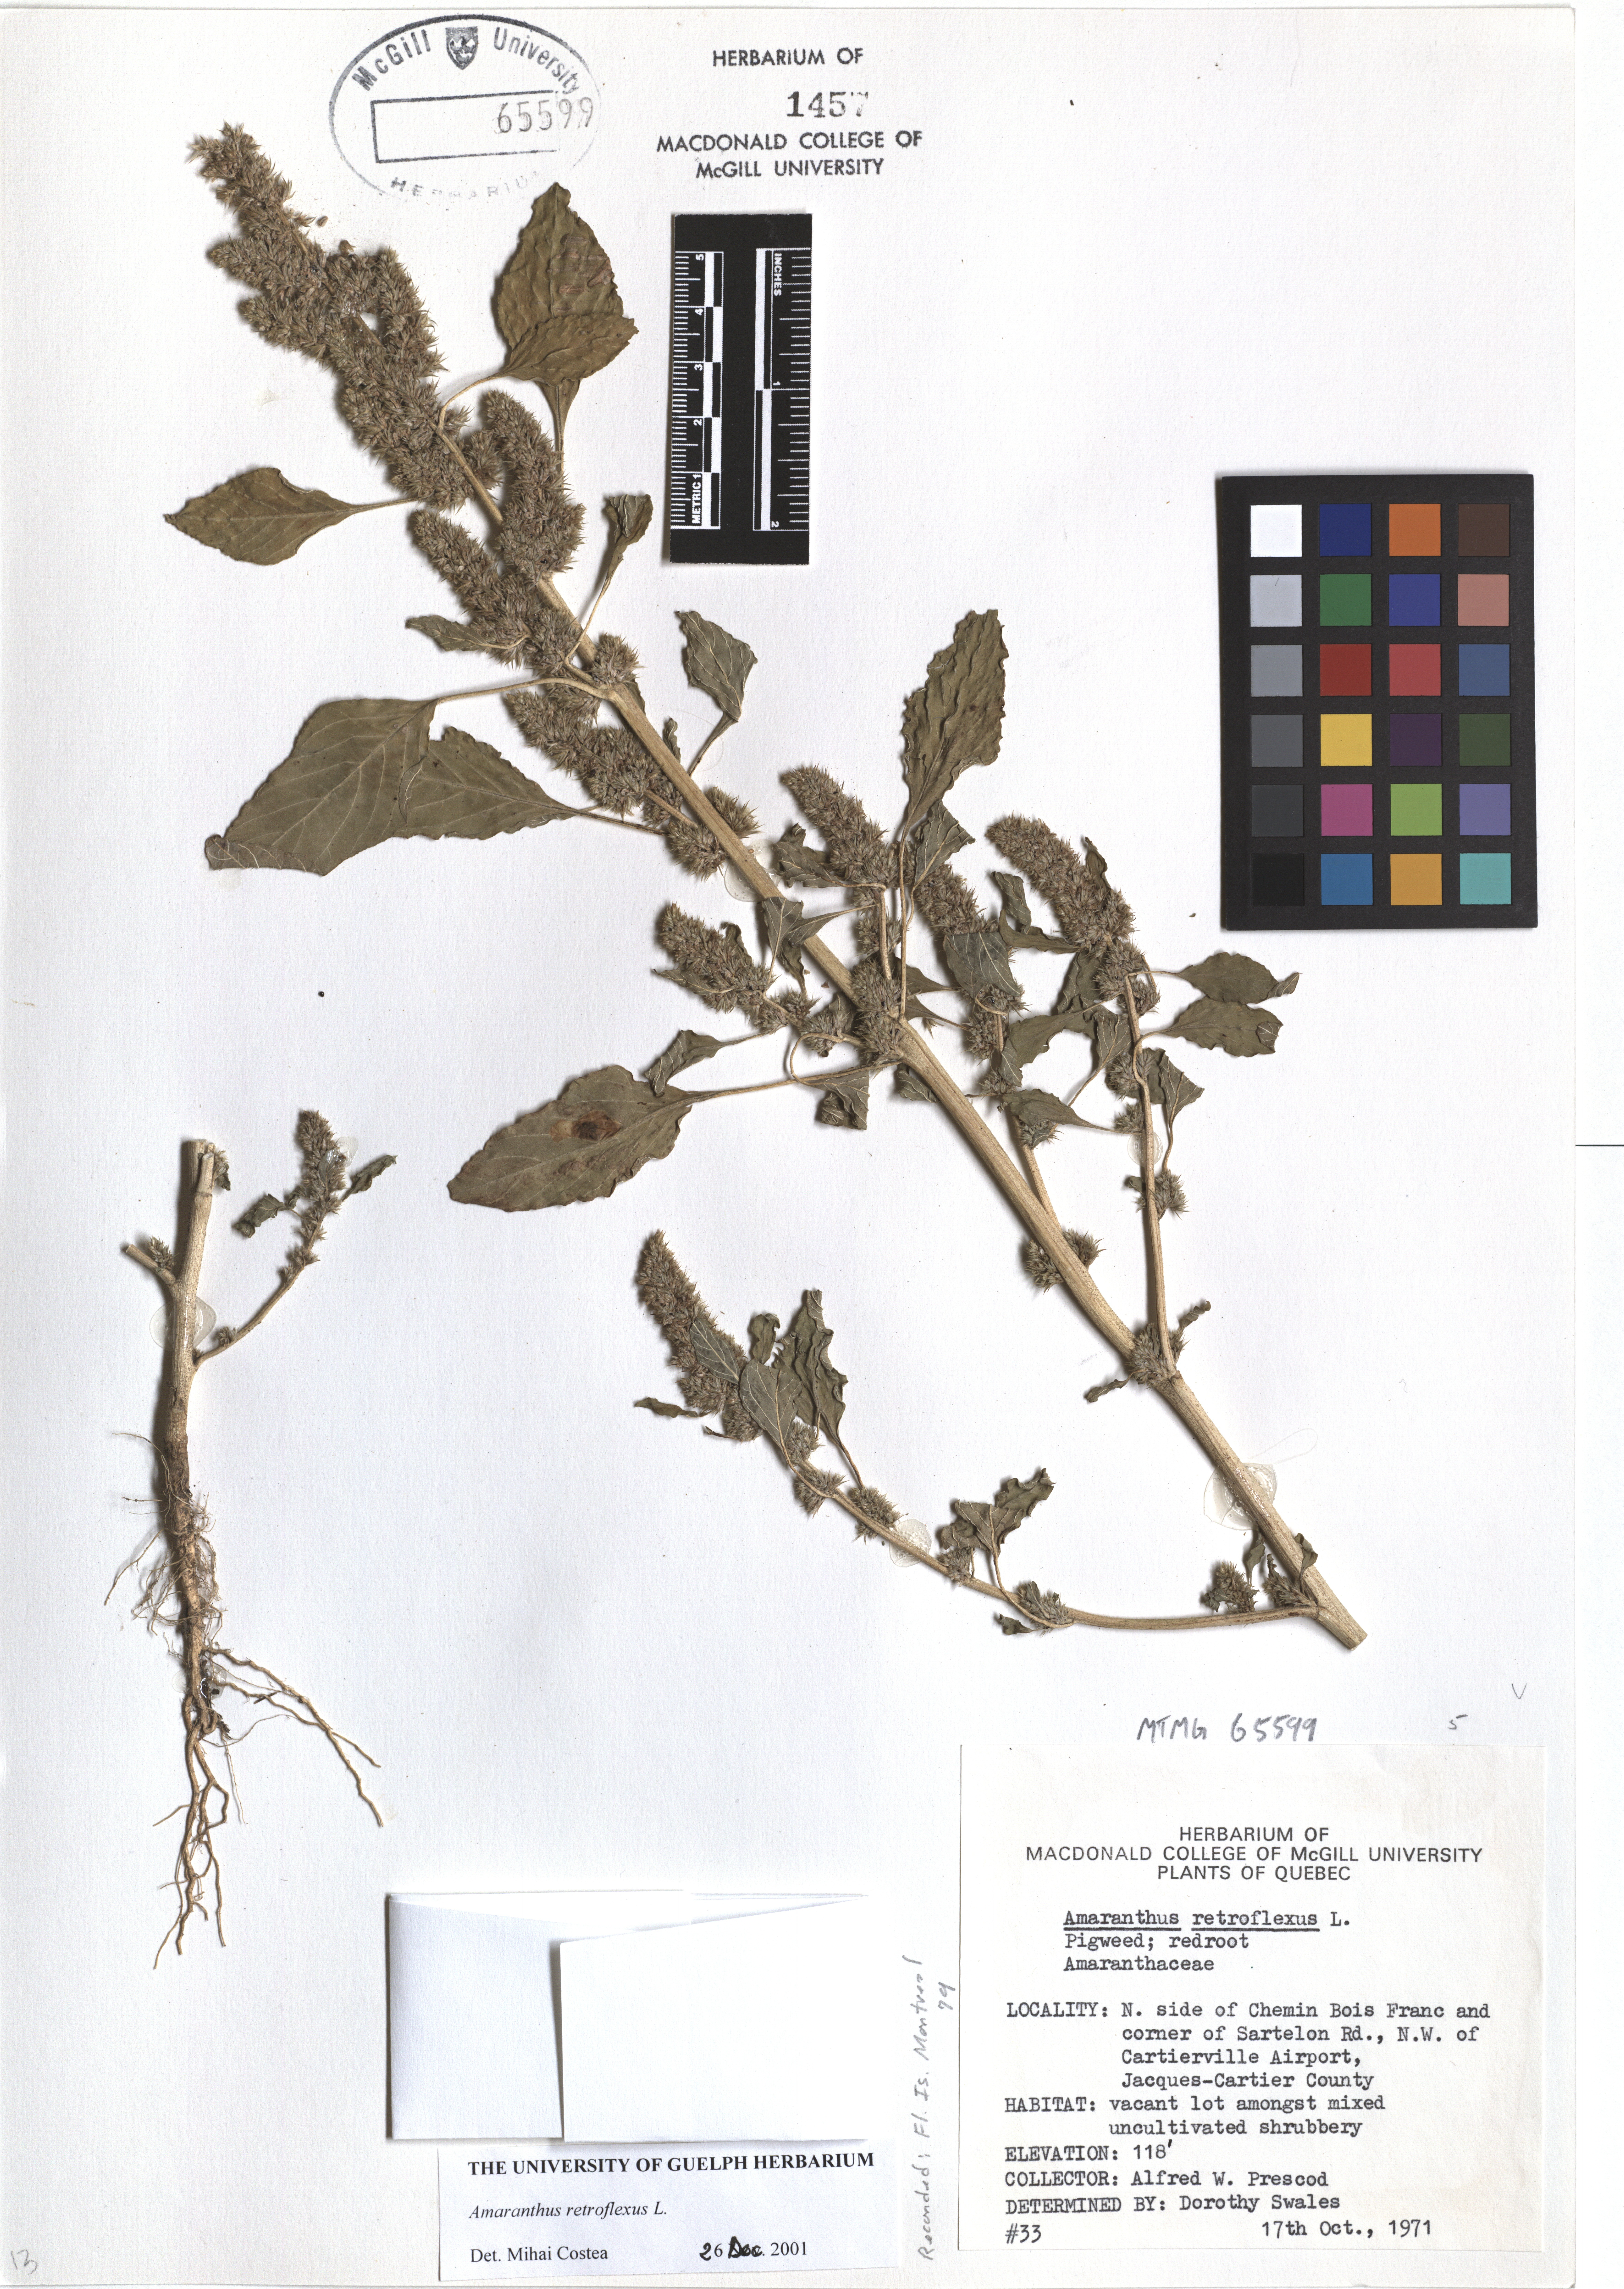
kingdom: Plantae
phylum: Tracheophyta
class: Magnoliopsida
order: Caryophyllales
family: Amaranthaceae
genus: Amaranthus
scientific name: Amaranthus retroflexus
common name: Redroot amaranth
